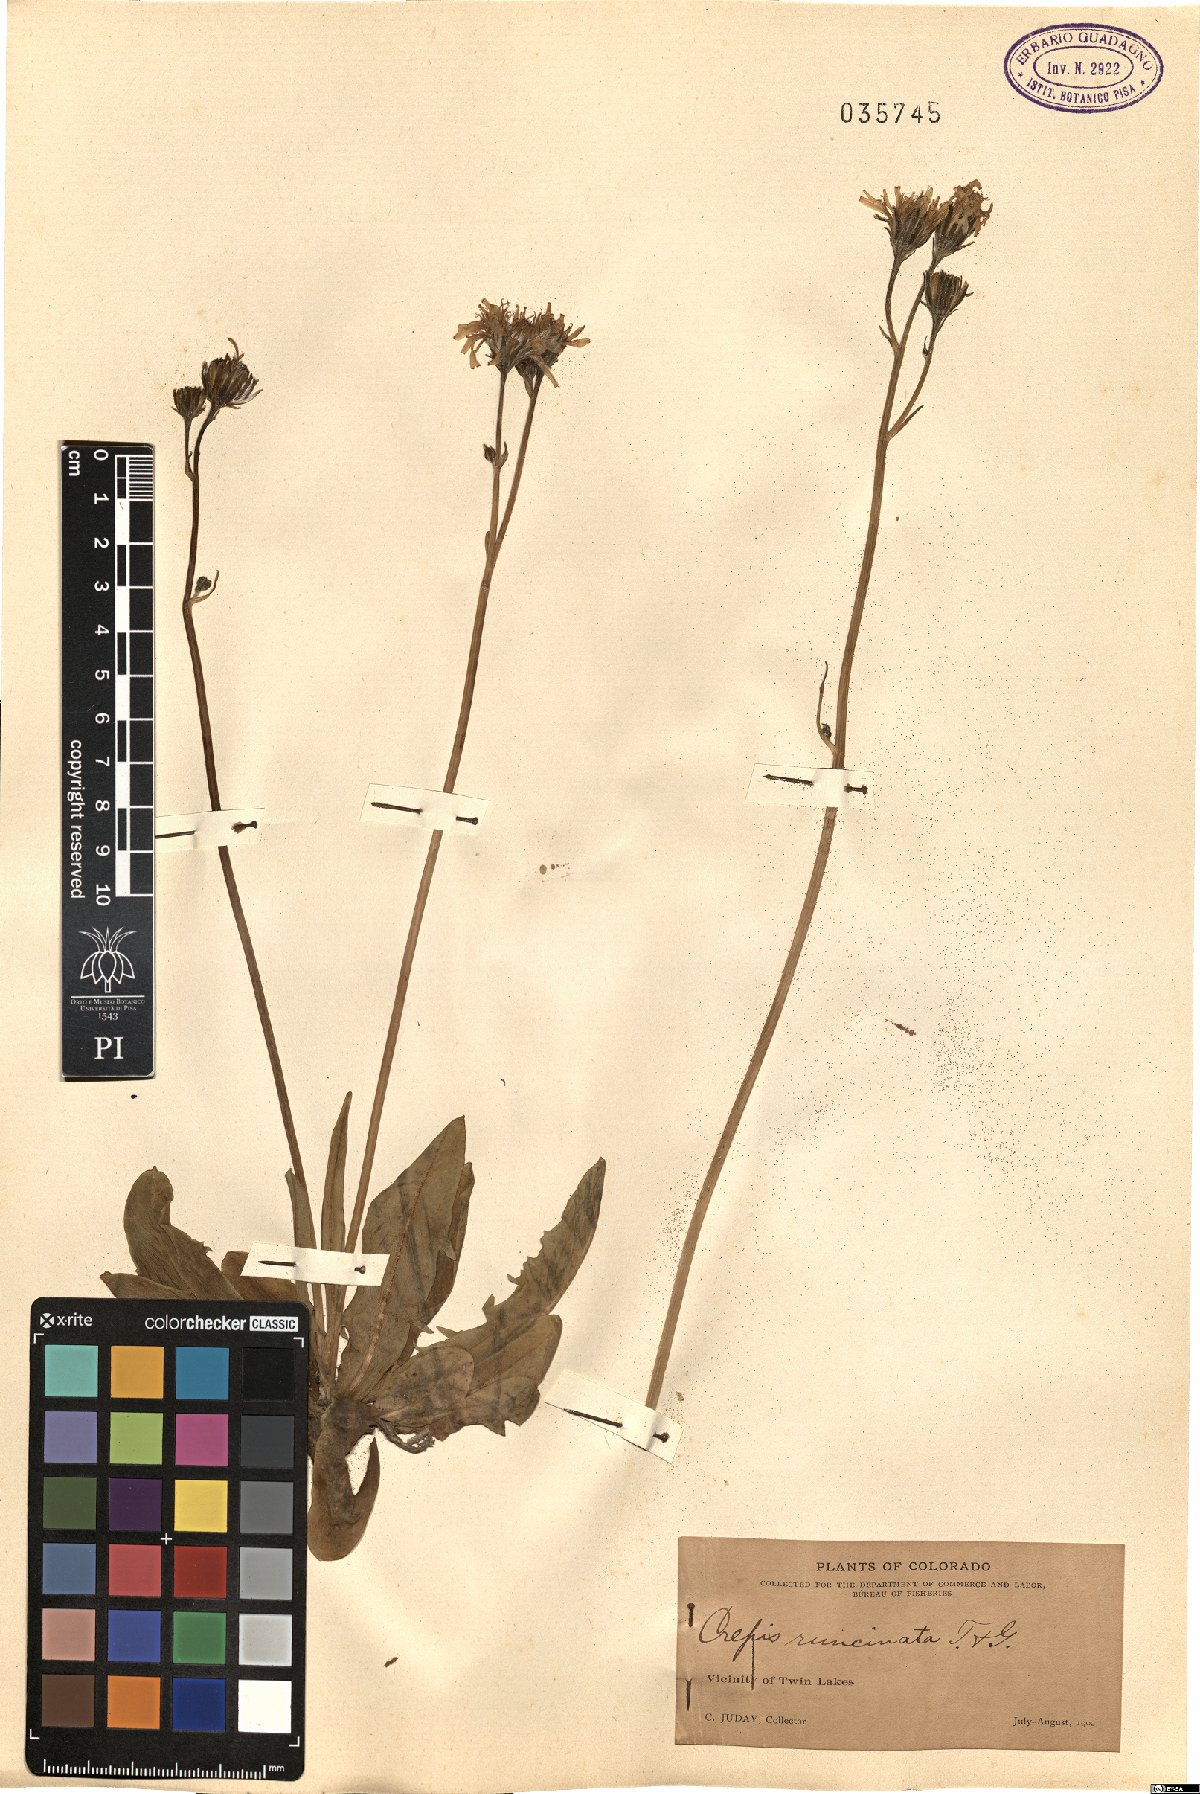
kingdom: Plantae
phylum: Tracheophyta
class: Magnoliopsida
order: Asterales
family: Asteraceae
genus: Crepis
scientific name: Crepis runcinata
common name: Dandelion hawksbeard
